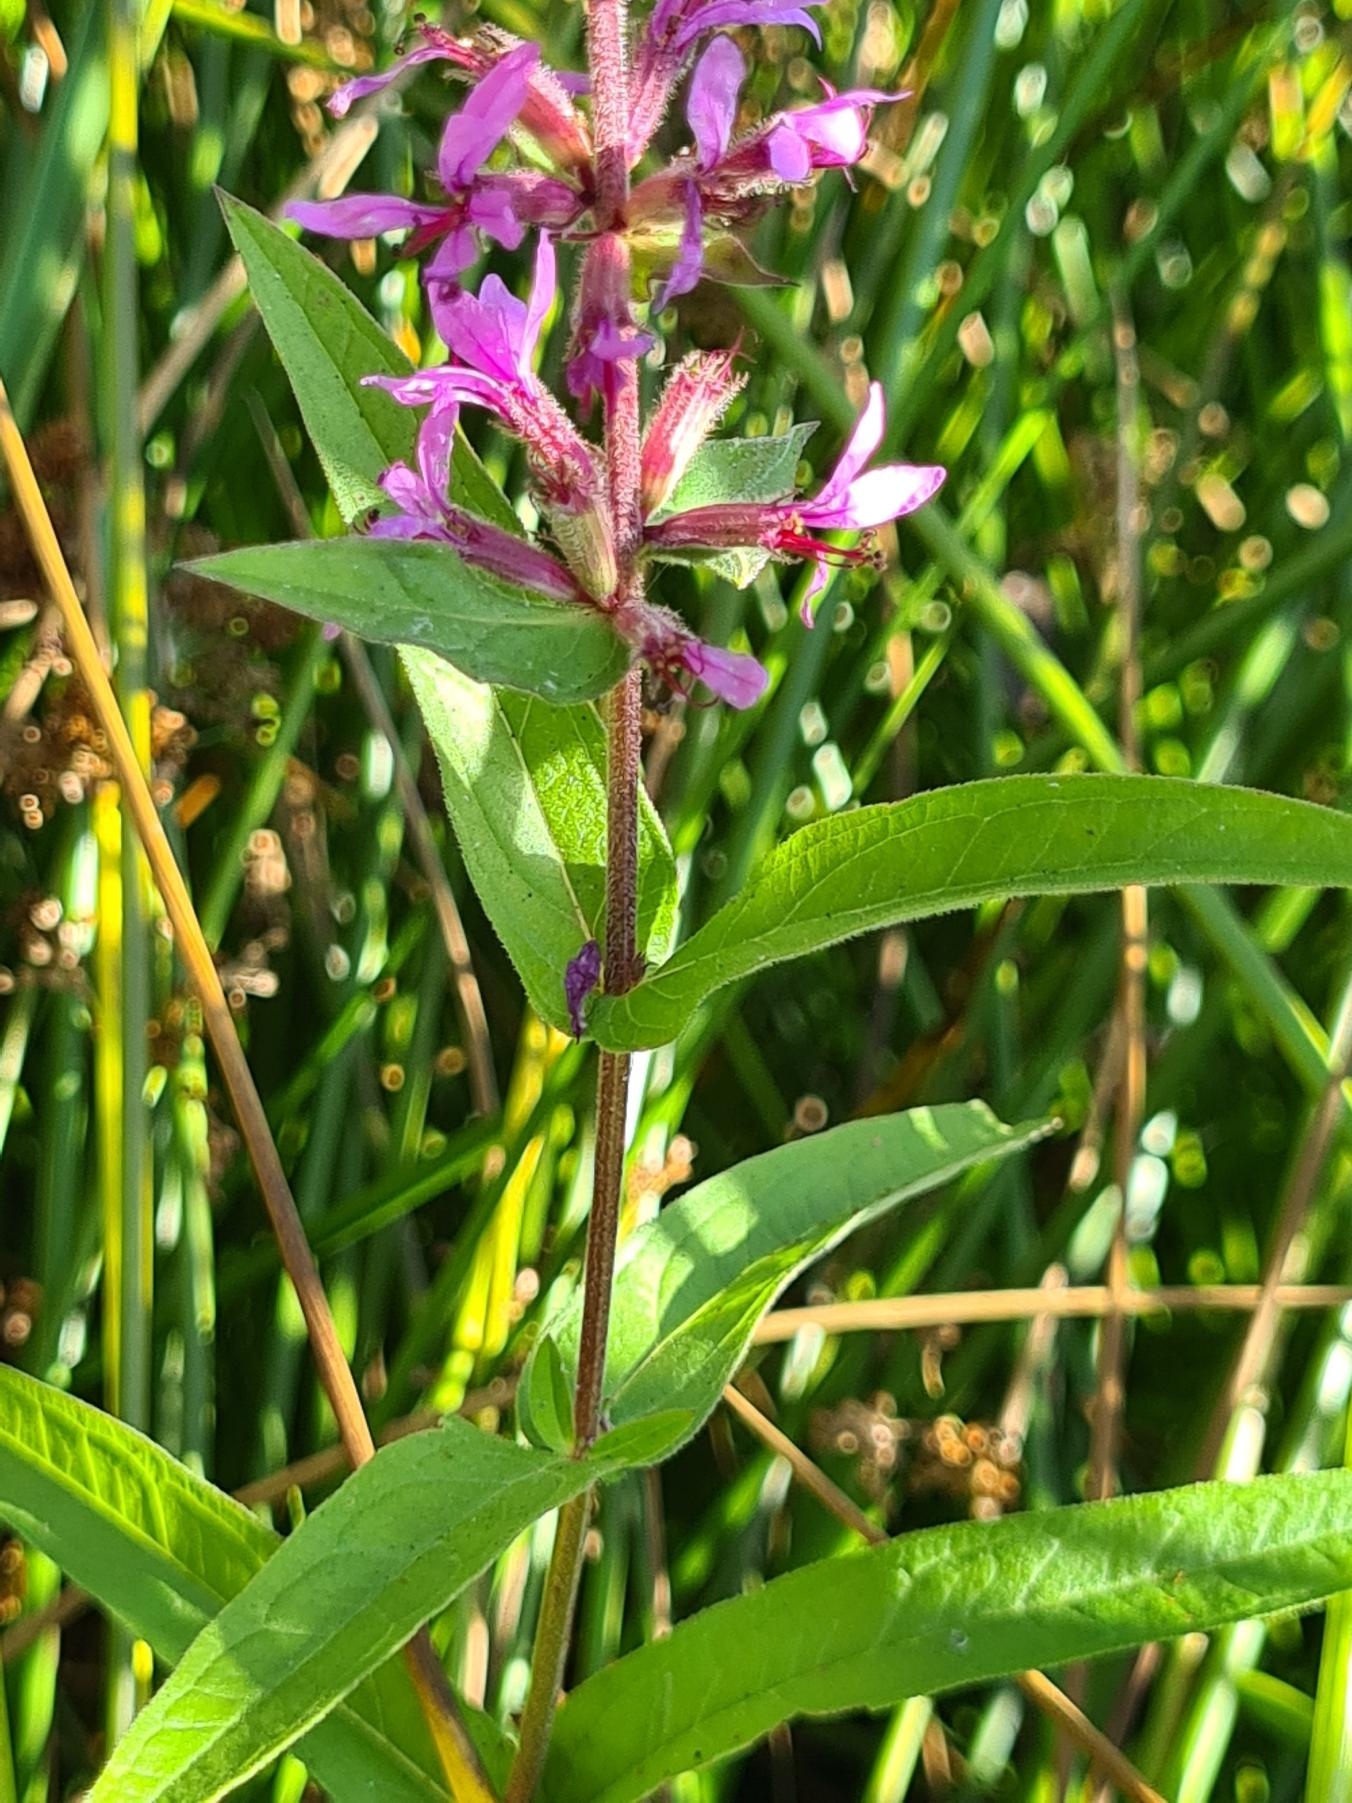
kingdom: Plantae
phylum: Tracheophyta
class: Magnoliopsida
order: Myrtales
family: Lythraceae
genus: Lythrum
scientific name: Lythrum salicaria
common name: Kattehale
